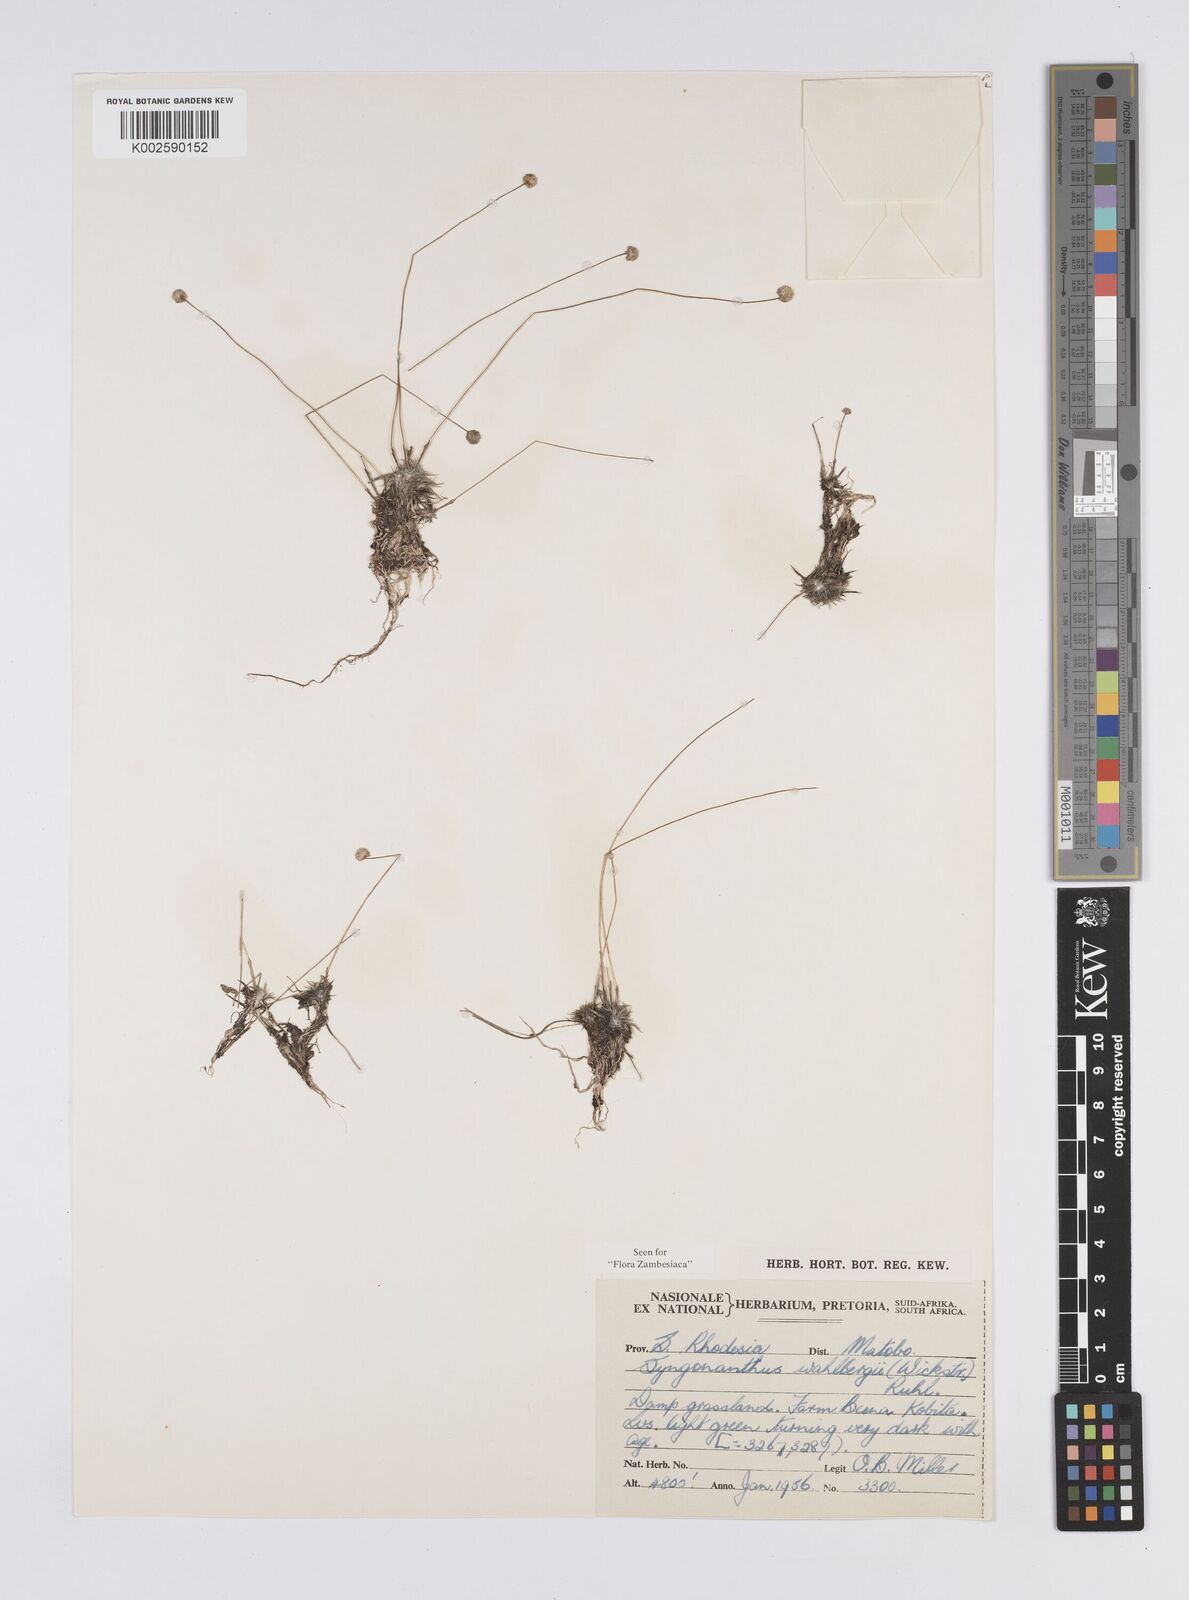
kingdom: Plantae
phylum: Tracheophyta
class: Liliopsida
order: Poales
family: Eriocaulaceae
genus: Syngonanthus
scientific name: Syngonanthus wahlbergii
